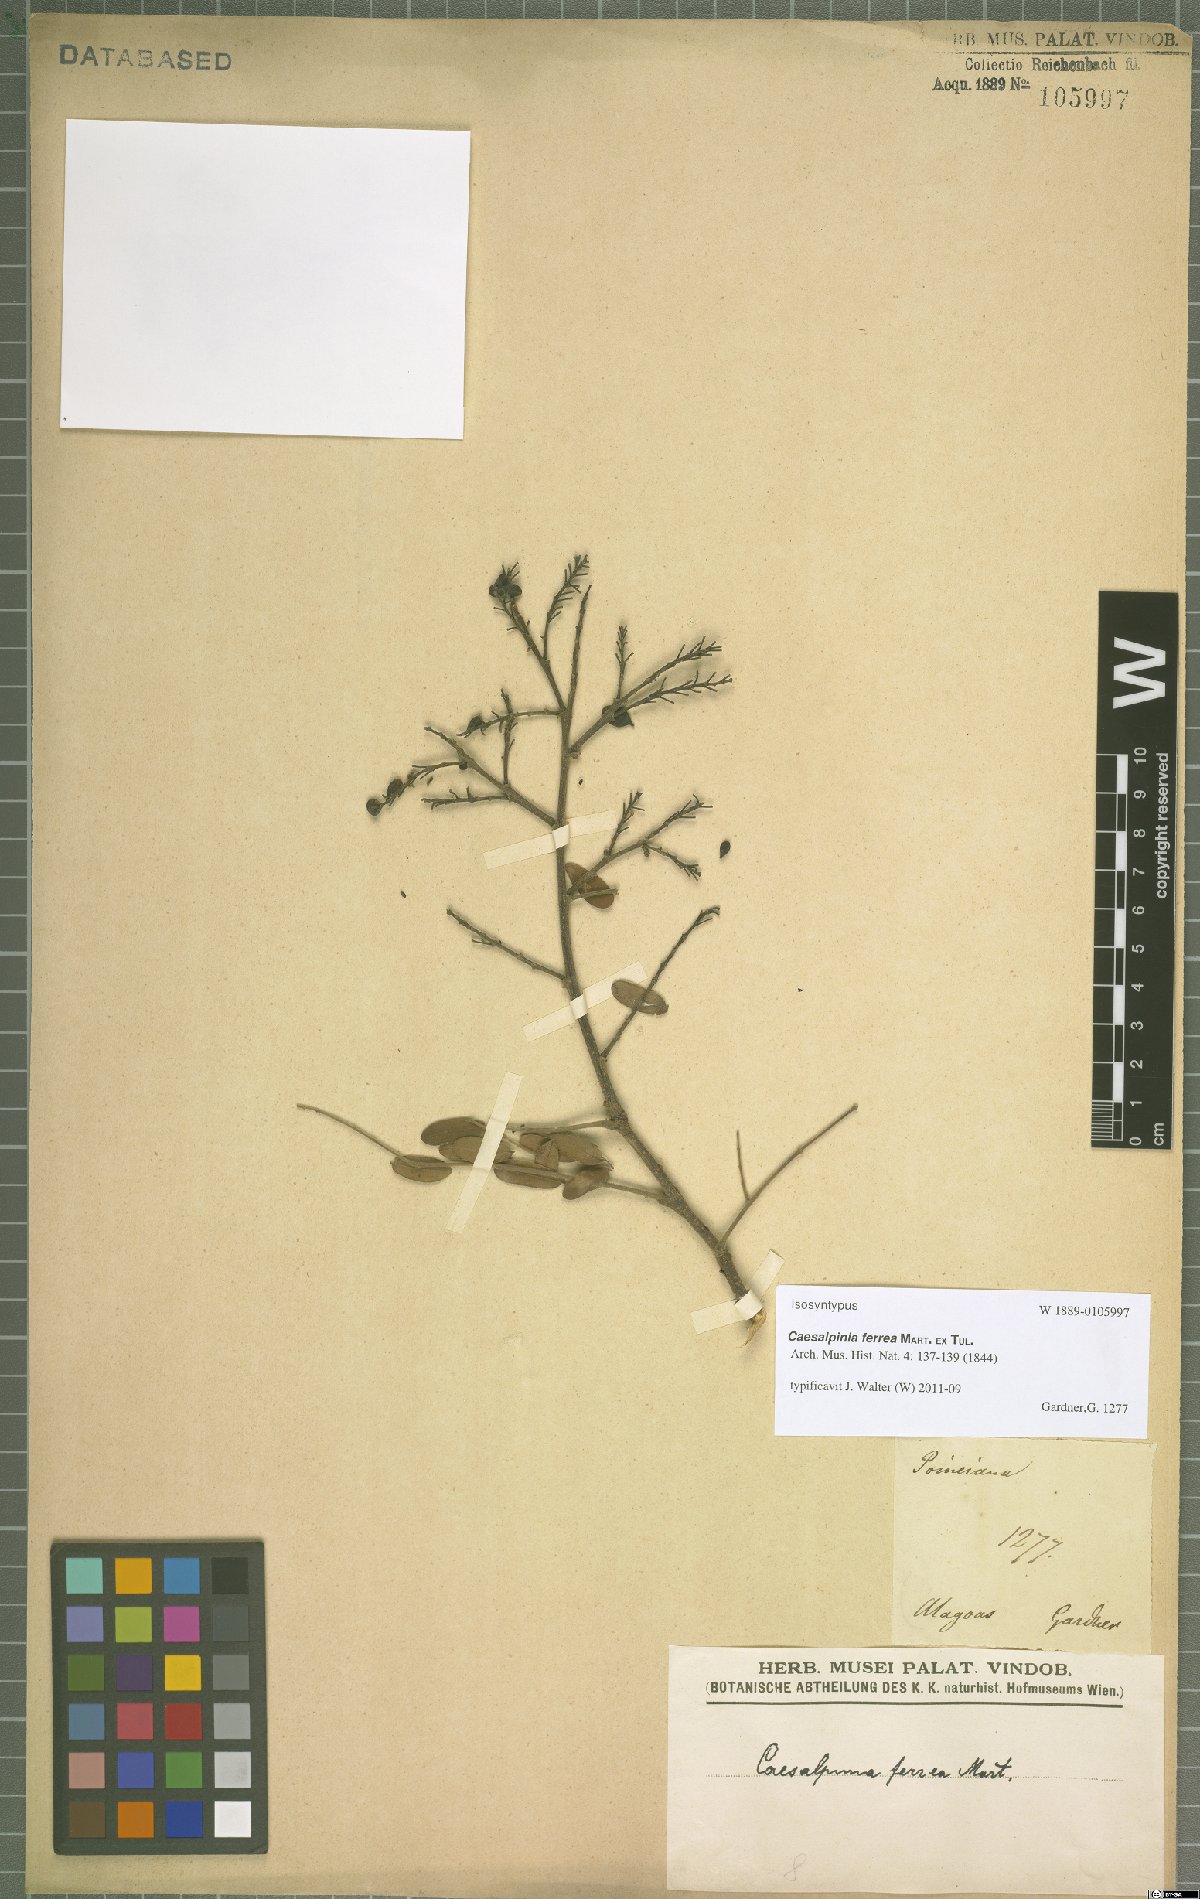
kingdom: Plantae
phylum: Tracheophyta
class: Magnoliopsida
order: Fabales
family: Fabaceae
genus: Libidibia
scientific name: Libidibia ferrea
